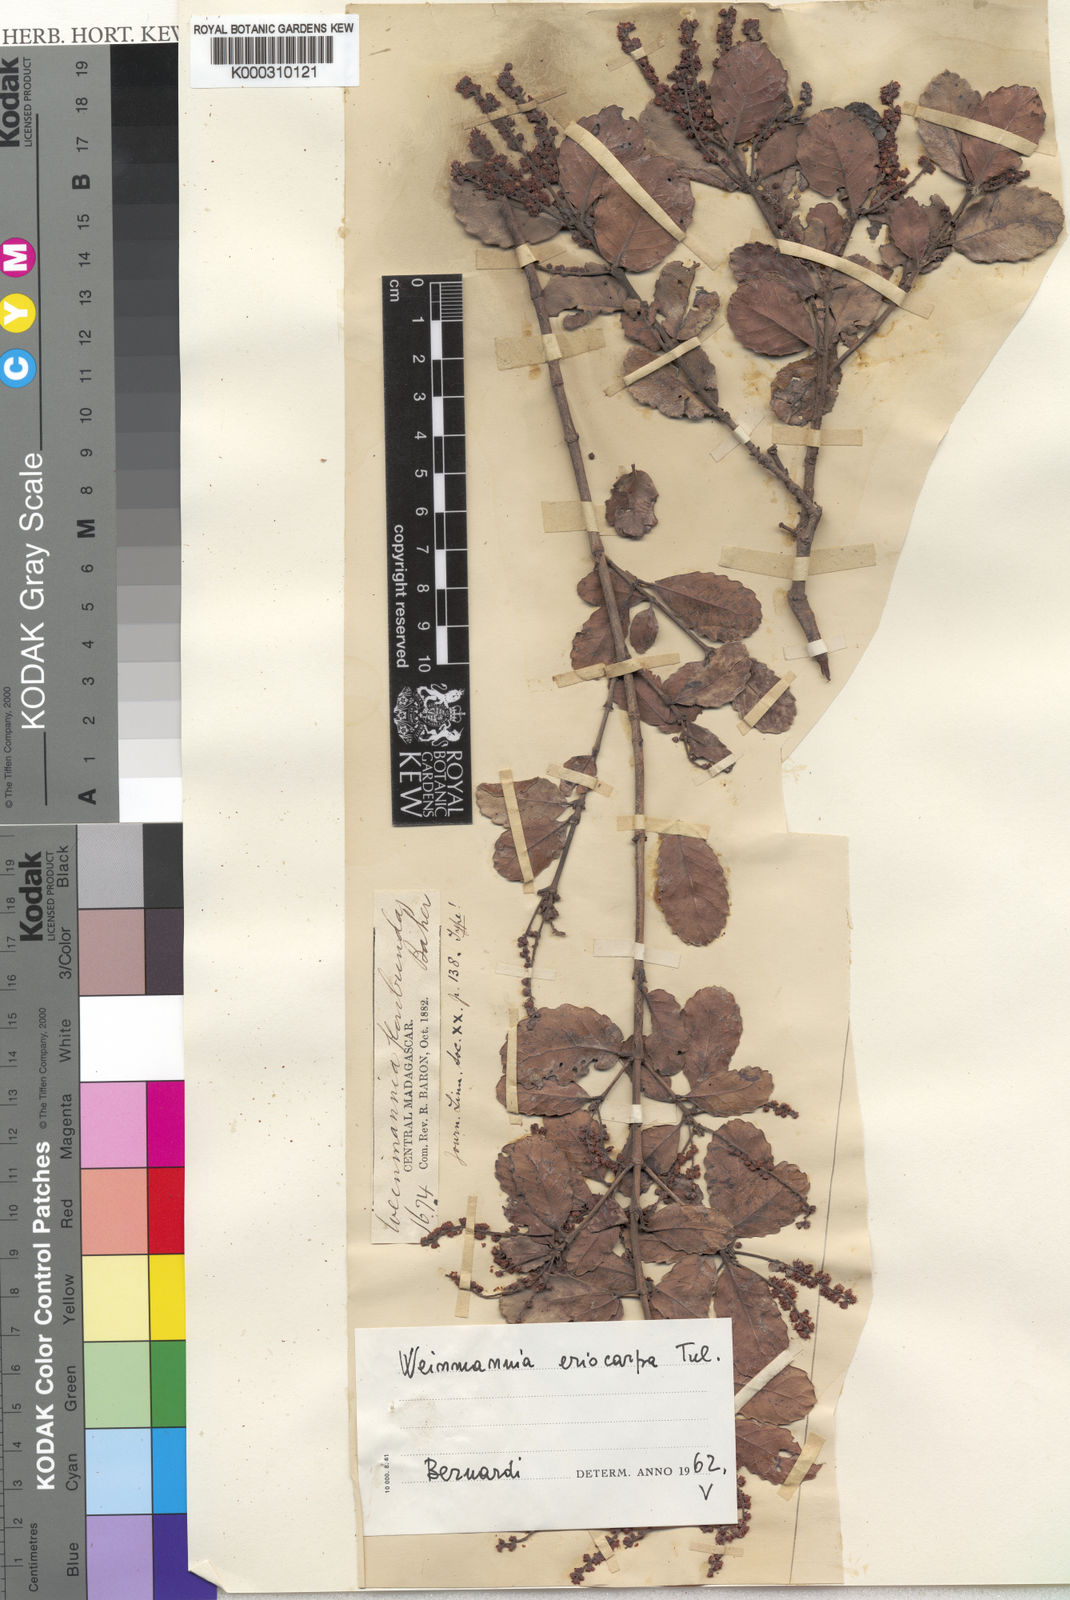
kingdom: Plantae
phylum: Tracheophyta
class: Magnoliopsida
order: Oxalidales
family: Cunoniaceae
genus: Pterophylla
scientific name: Pterophylla eriocarpa
